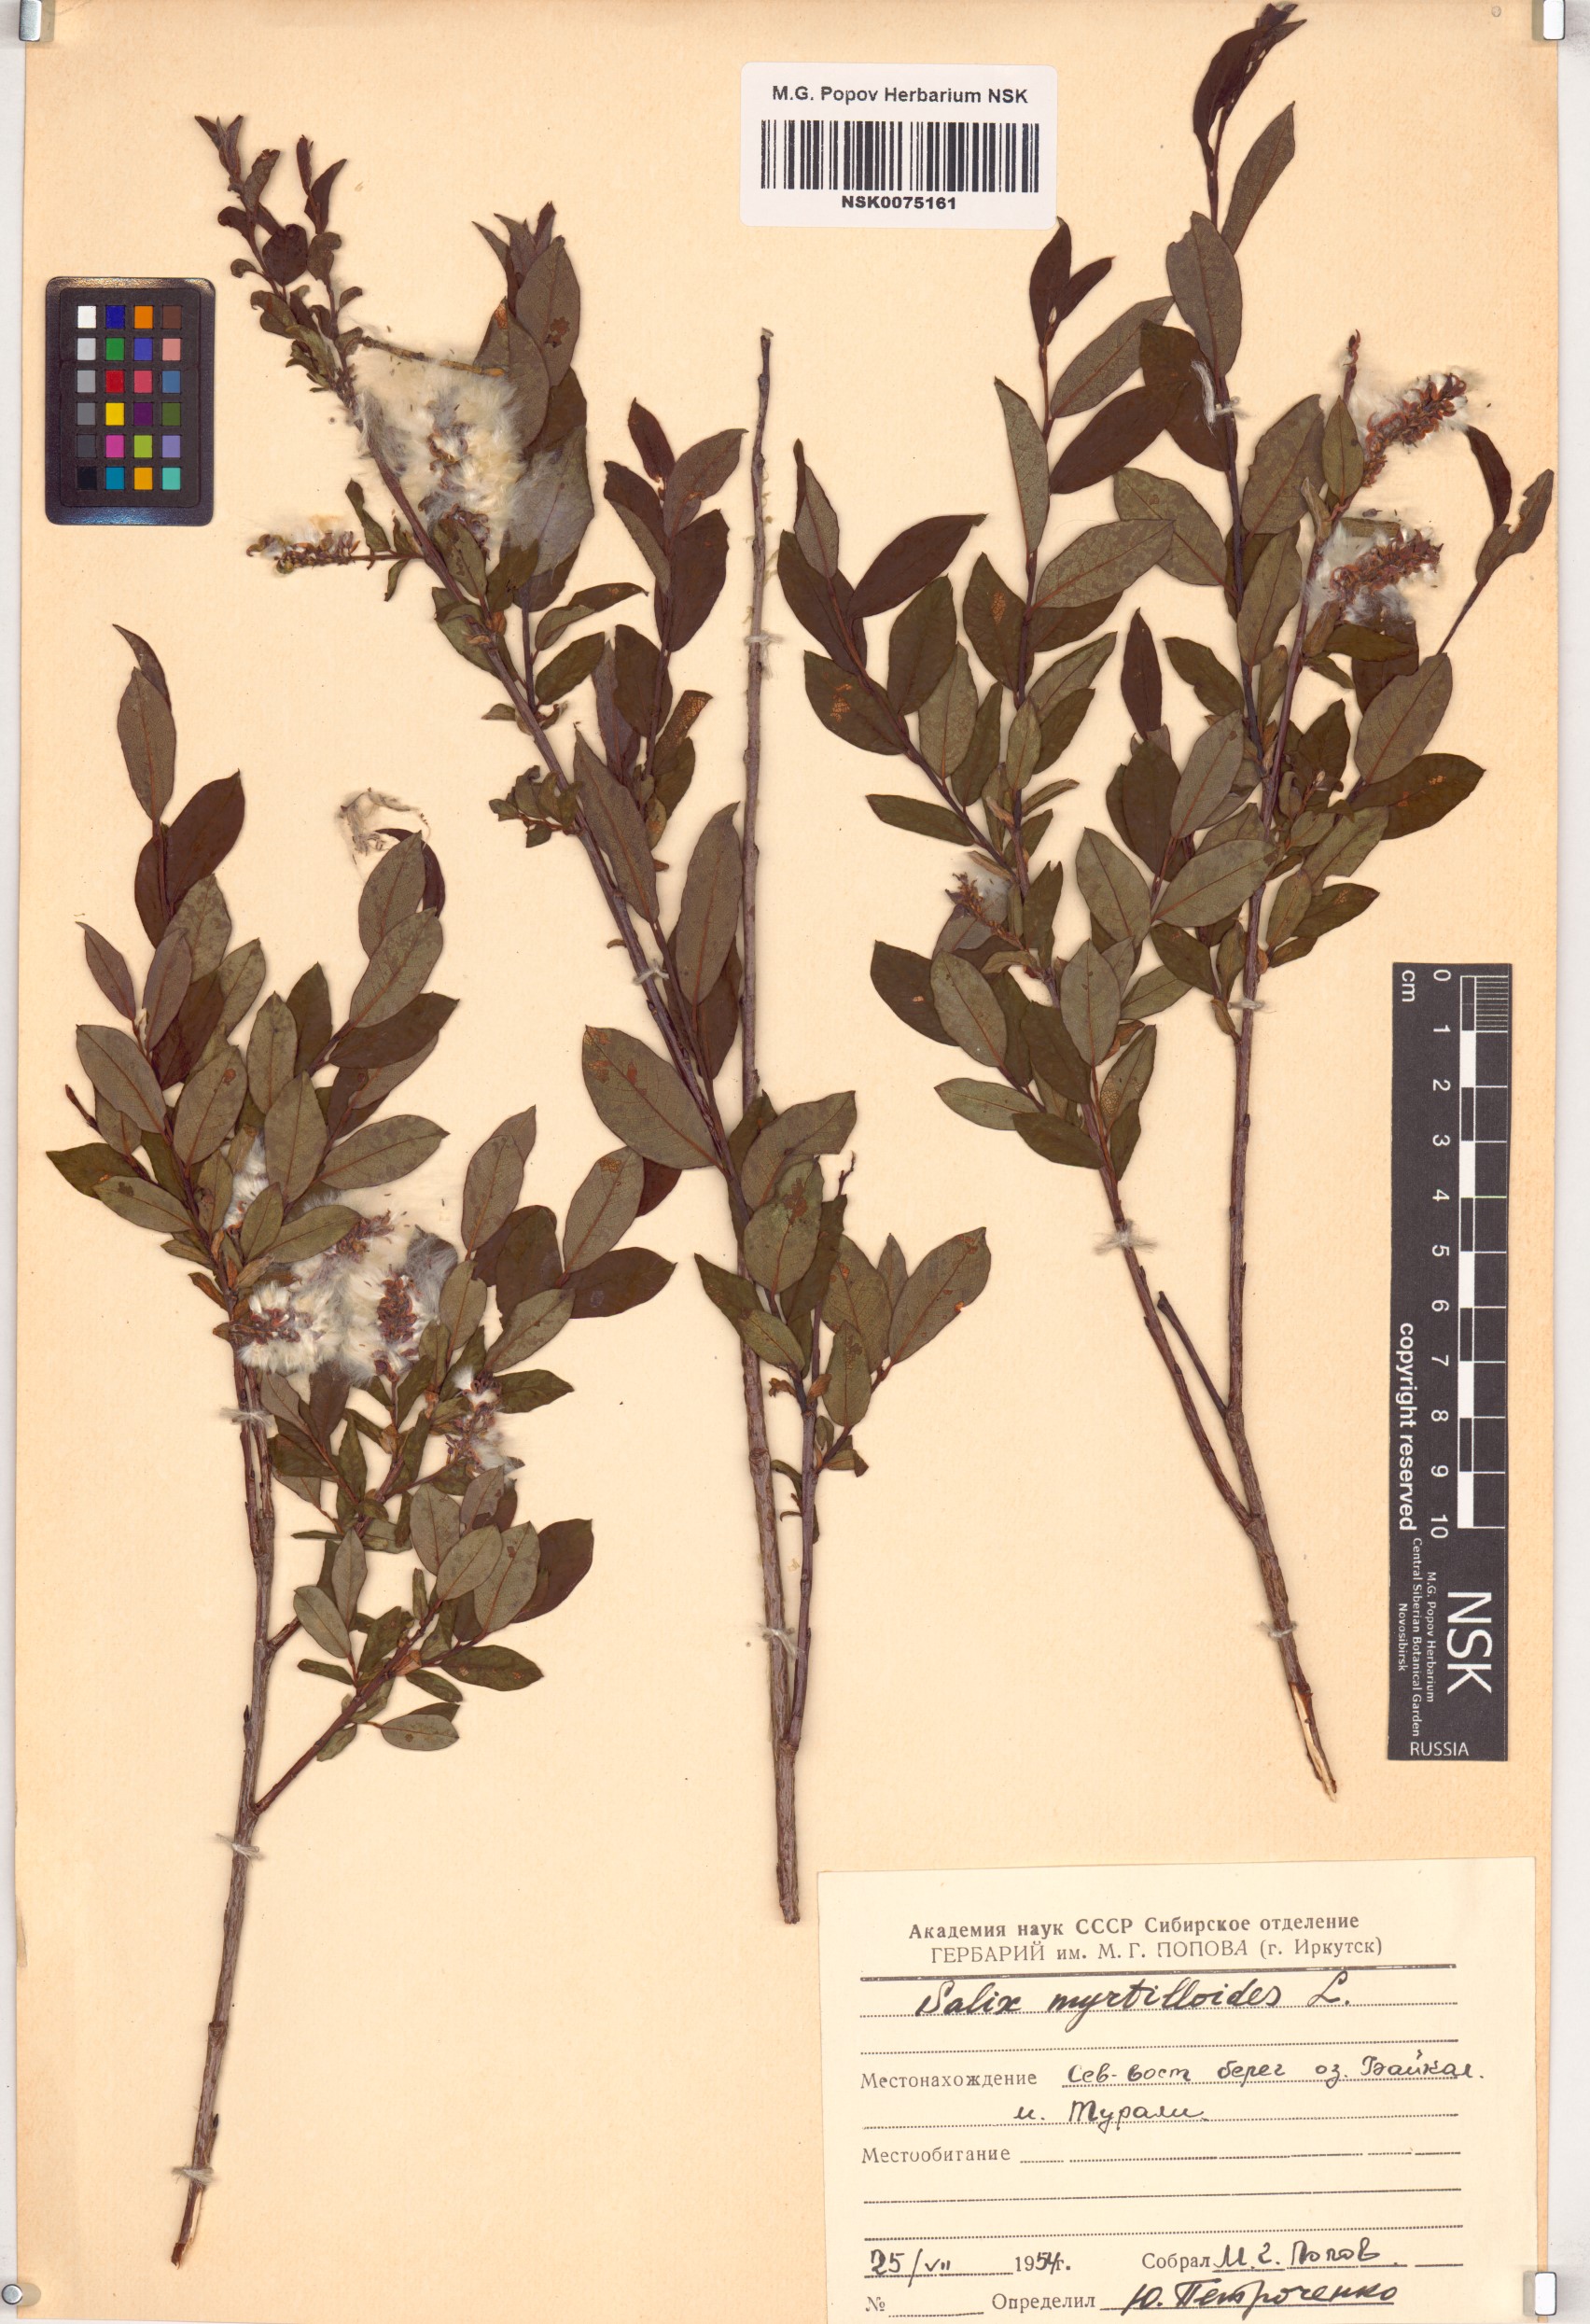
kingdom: Plantae
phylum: Tracheophyta
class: Magnoliopsida
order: Malpighiales
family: Salicaceae
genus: Salix
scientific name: Salix myrtilloides
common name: Myrtle-leaved willow
